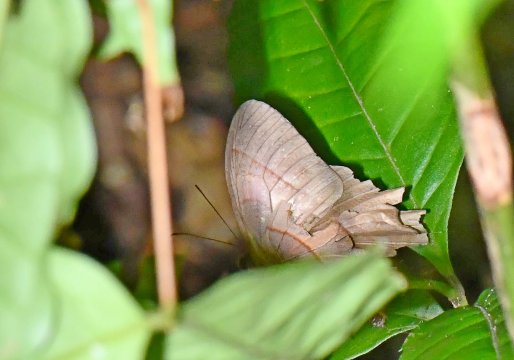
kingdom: Animalia
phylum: Arthropoda
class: Insecta
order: Lepidoptera
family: Nymphalidae
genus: Taygetis
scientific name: Taygetis virgilia
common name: Stub-tailed Satyr
